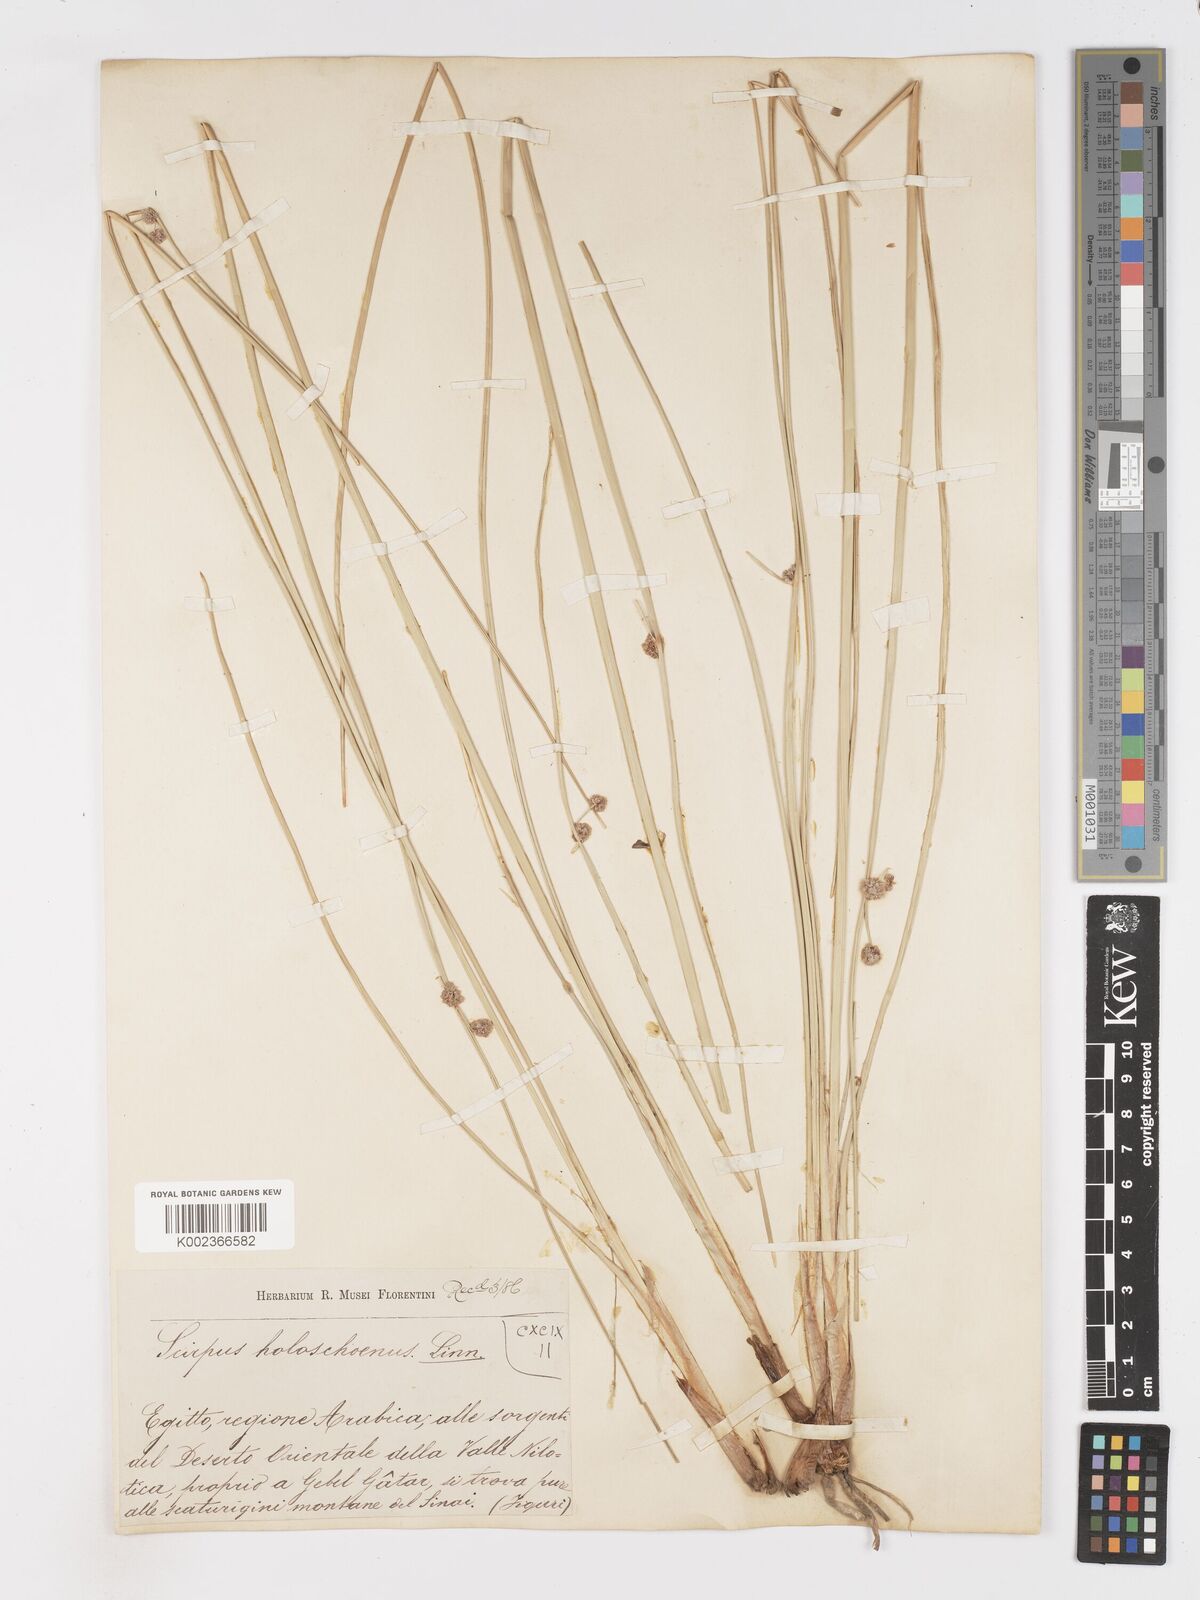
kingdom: Plantae
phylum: Tracheophyta
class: Liliopsida
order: Poales
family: Cyperaceae
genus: Scirpoides
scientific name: Scirpoides holoschoenus
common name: Round-headed club-rush
